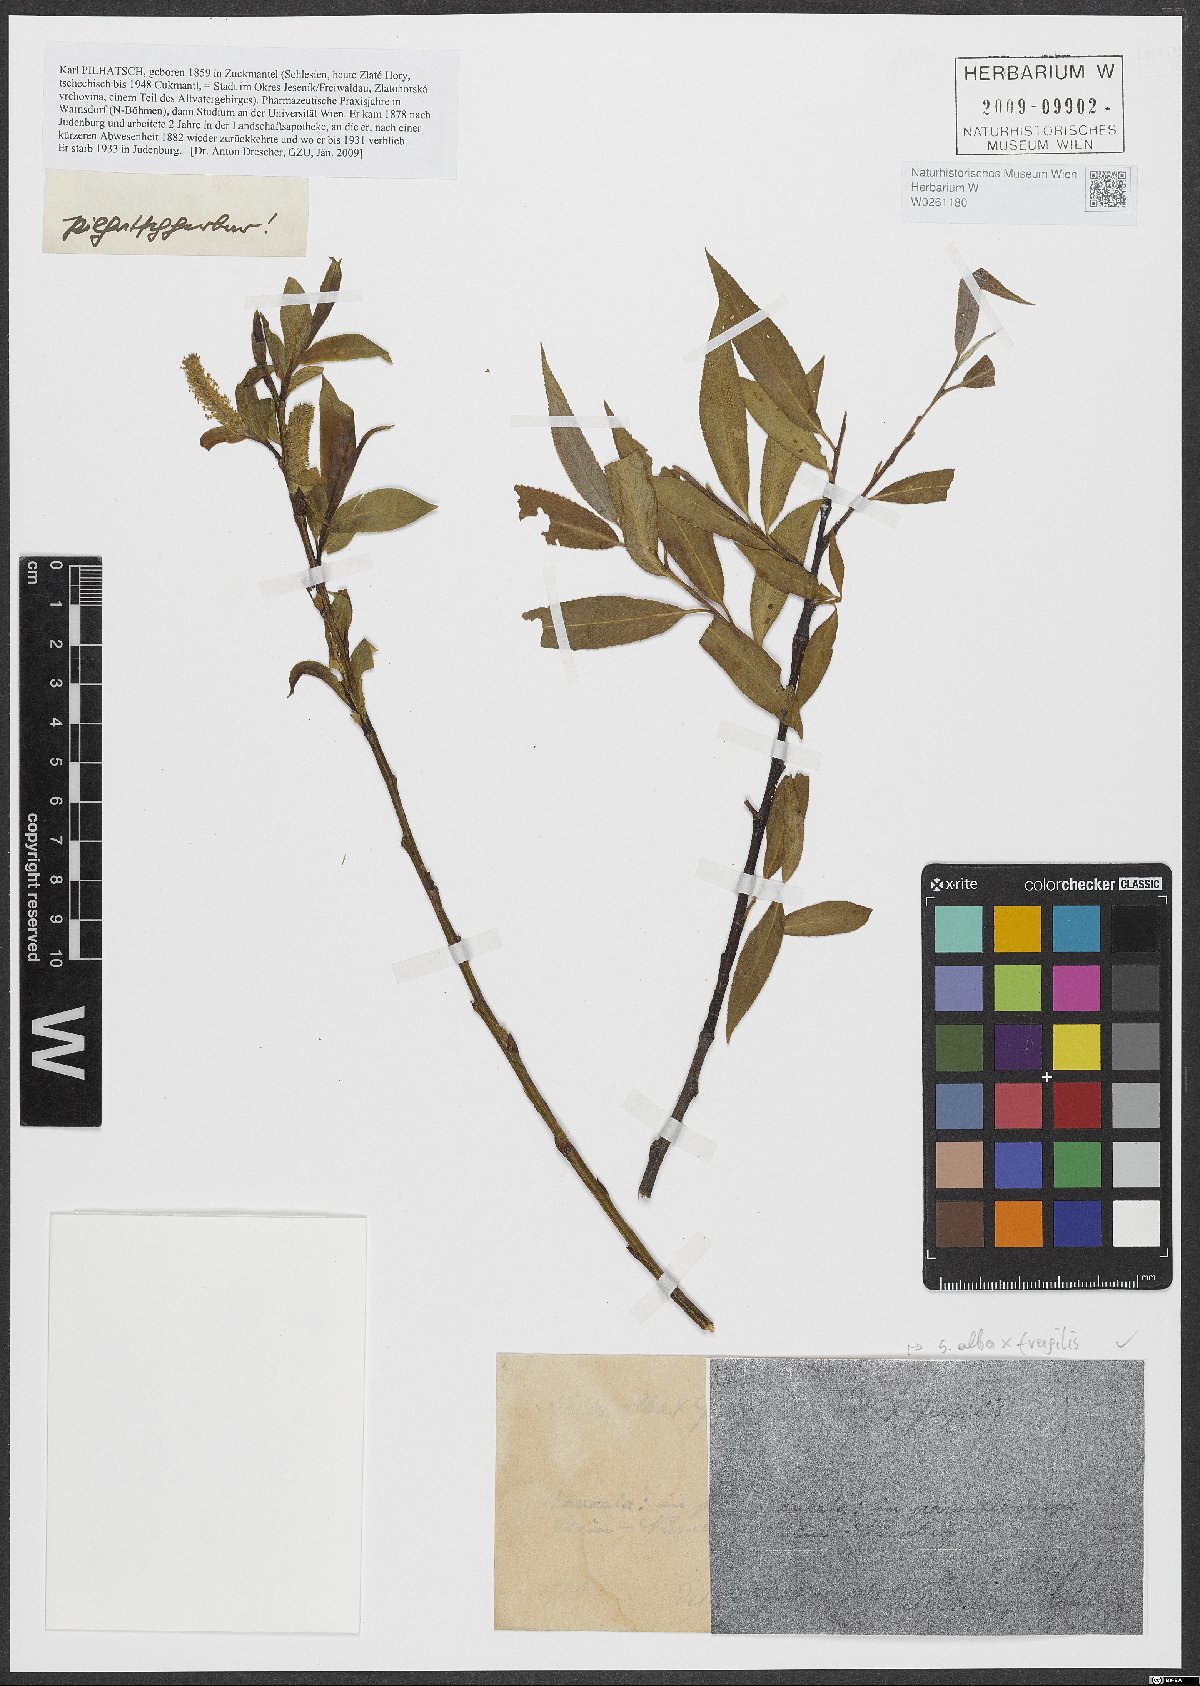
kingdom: Plantae
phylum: Tracheophyta
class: Magnoliopsida
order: Malpighiales
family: Salicaceae
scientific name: Salicaceae
